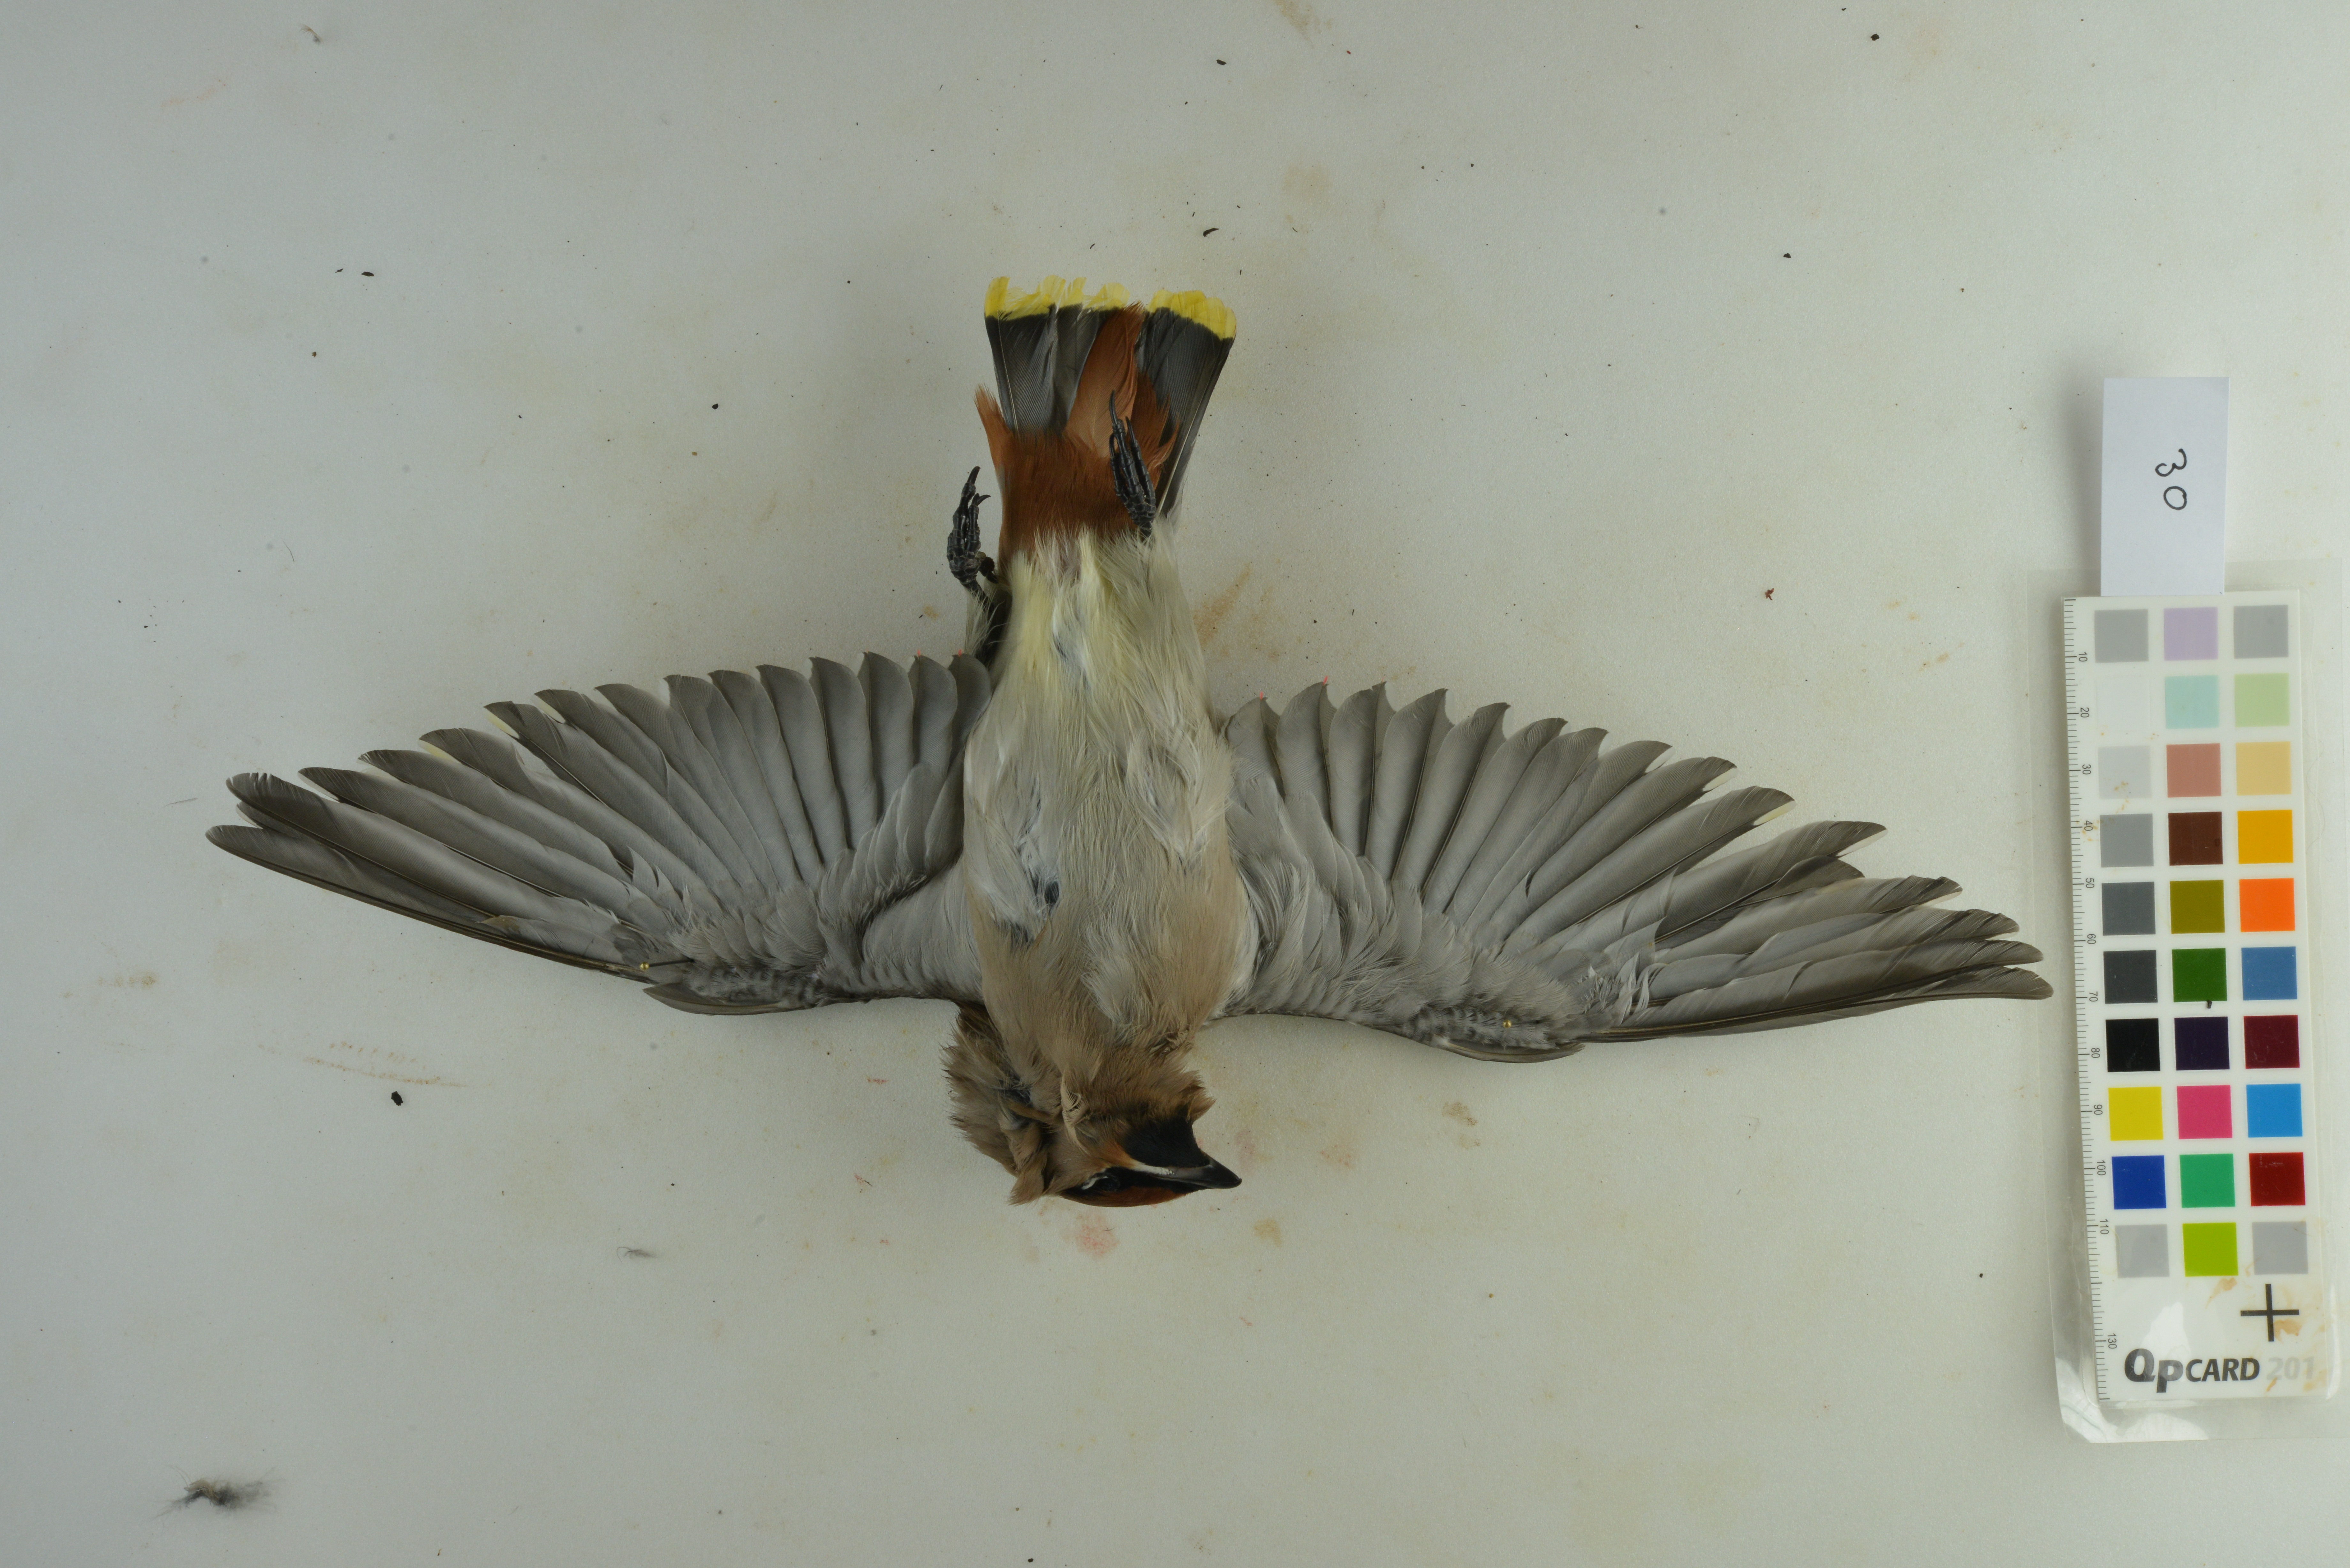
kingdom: Animalia
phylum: Chordata
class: Aves
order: Passeriformes
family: Bombycillidae
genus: Bombycilla
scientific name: Bombycilla garrulus
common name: Bohemian waxwing
